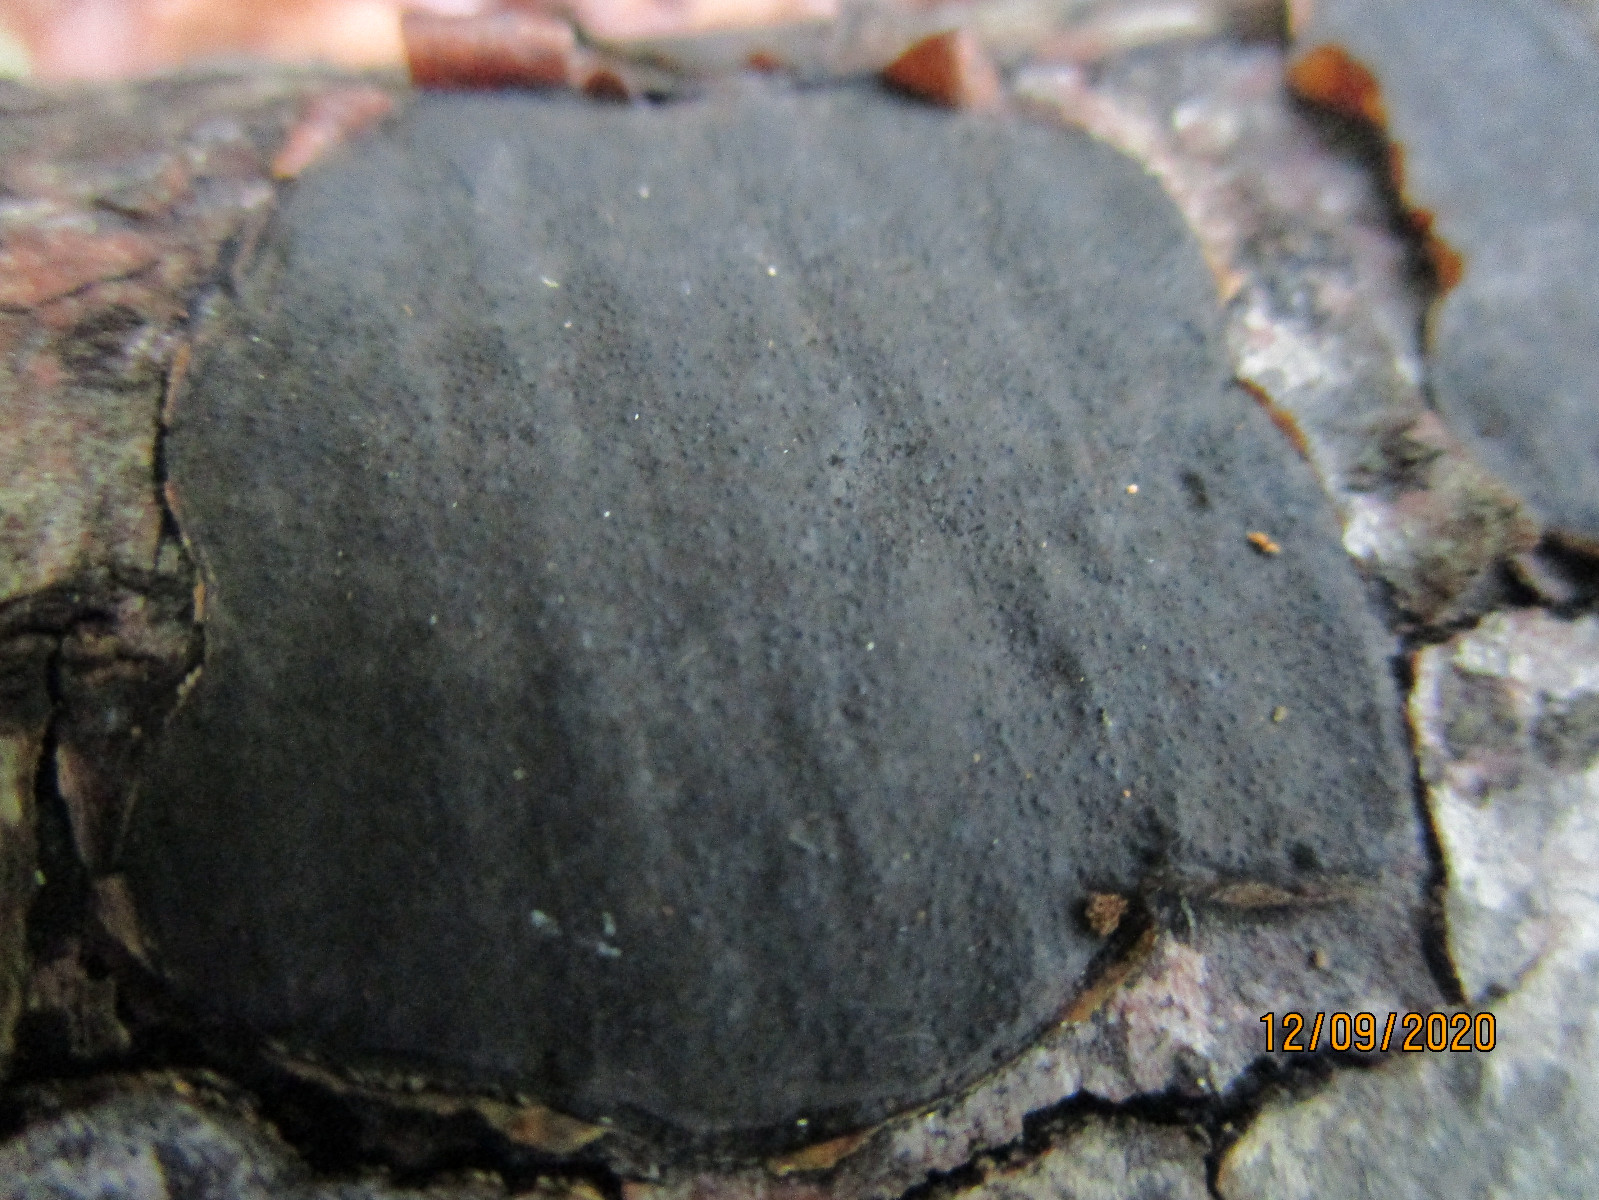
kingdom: Fungi
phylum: Ascomycota
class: Sordariomycetes
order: Xylariales
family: Graphostromataceae
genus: Biscogniauxia
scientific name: Biscogniauxia nummularia
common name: bøge-kulskive
